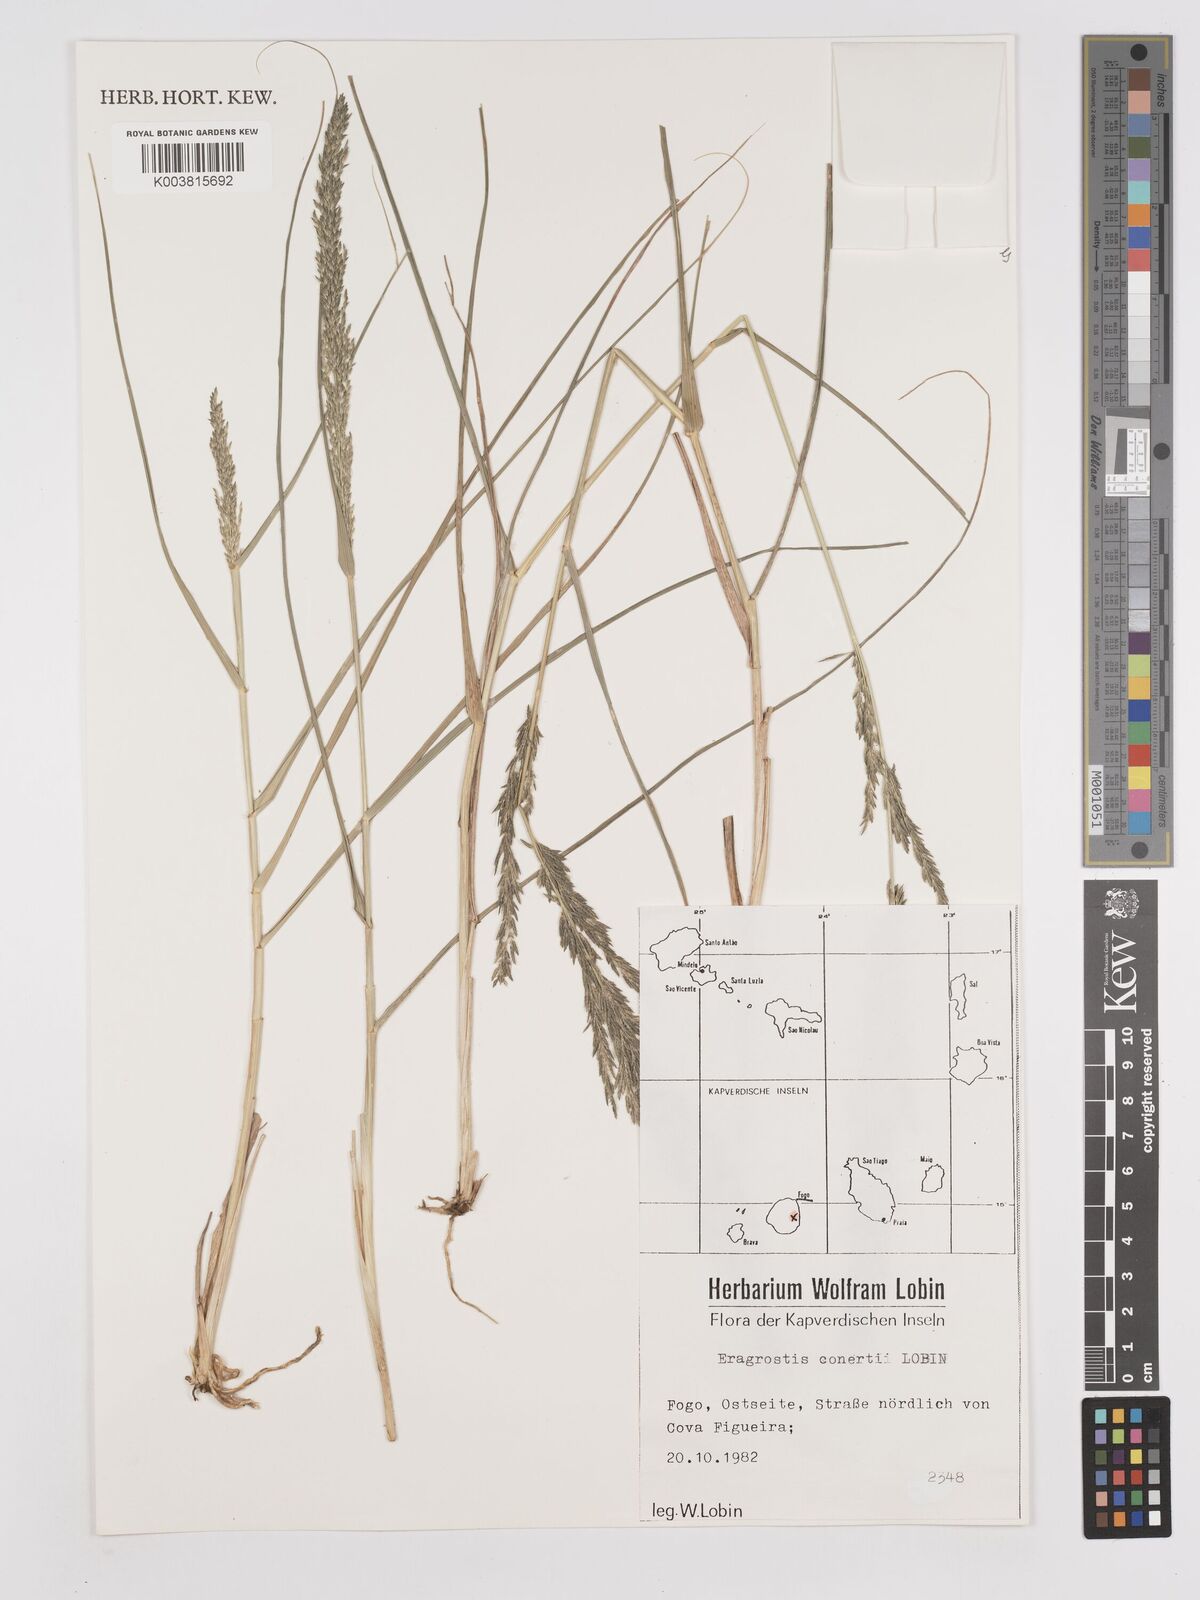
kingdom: Plantae
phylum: Tracheophyta
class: Liliopsida
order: Poales
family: Poaceae
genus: Eragrostis
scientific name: Eragrostis conertii
